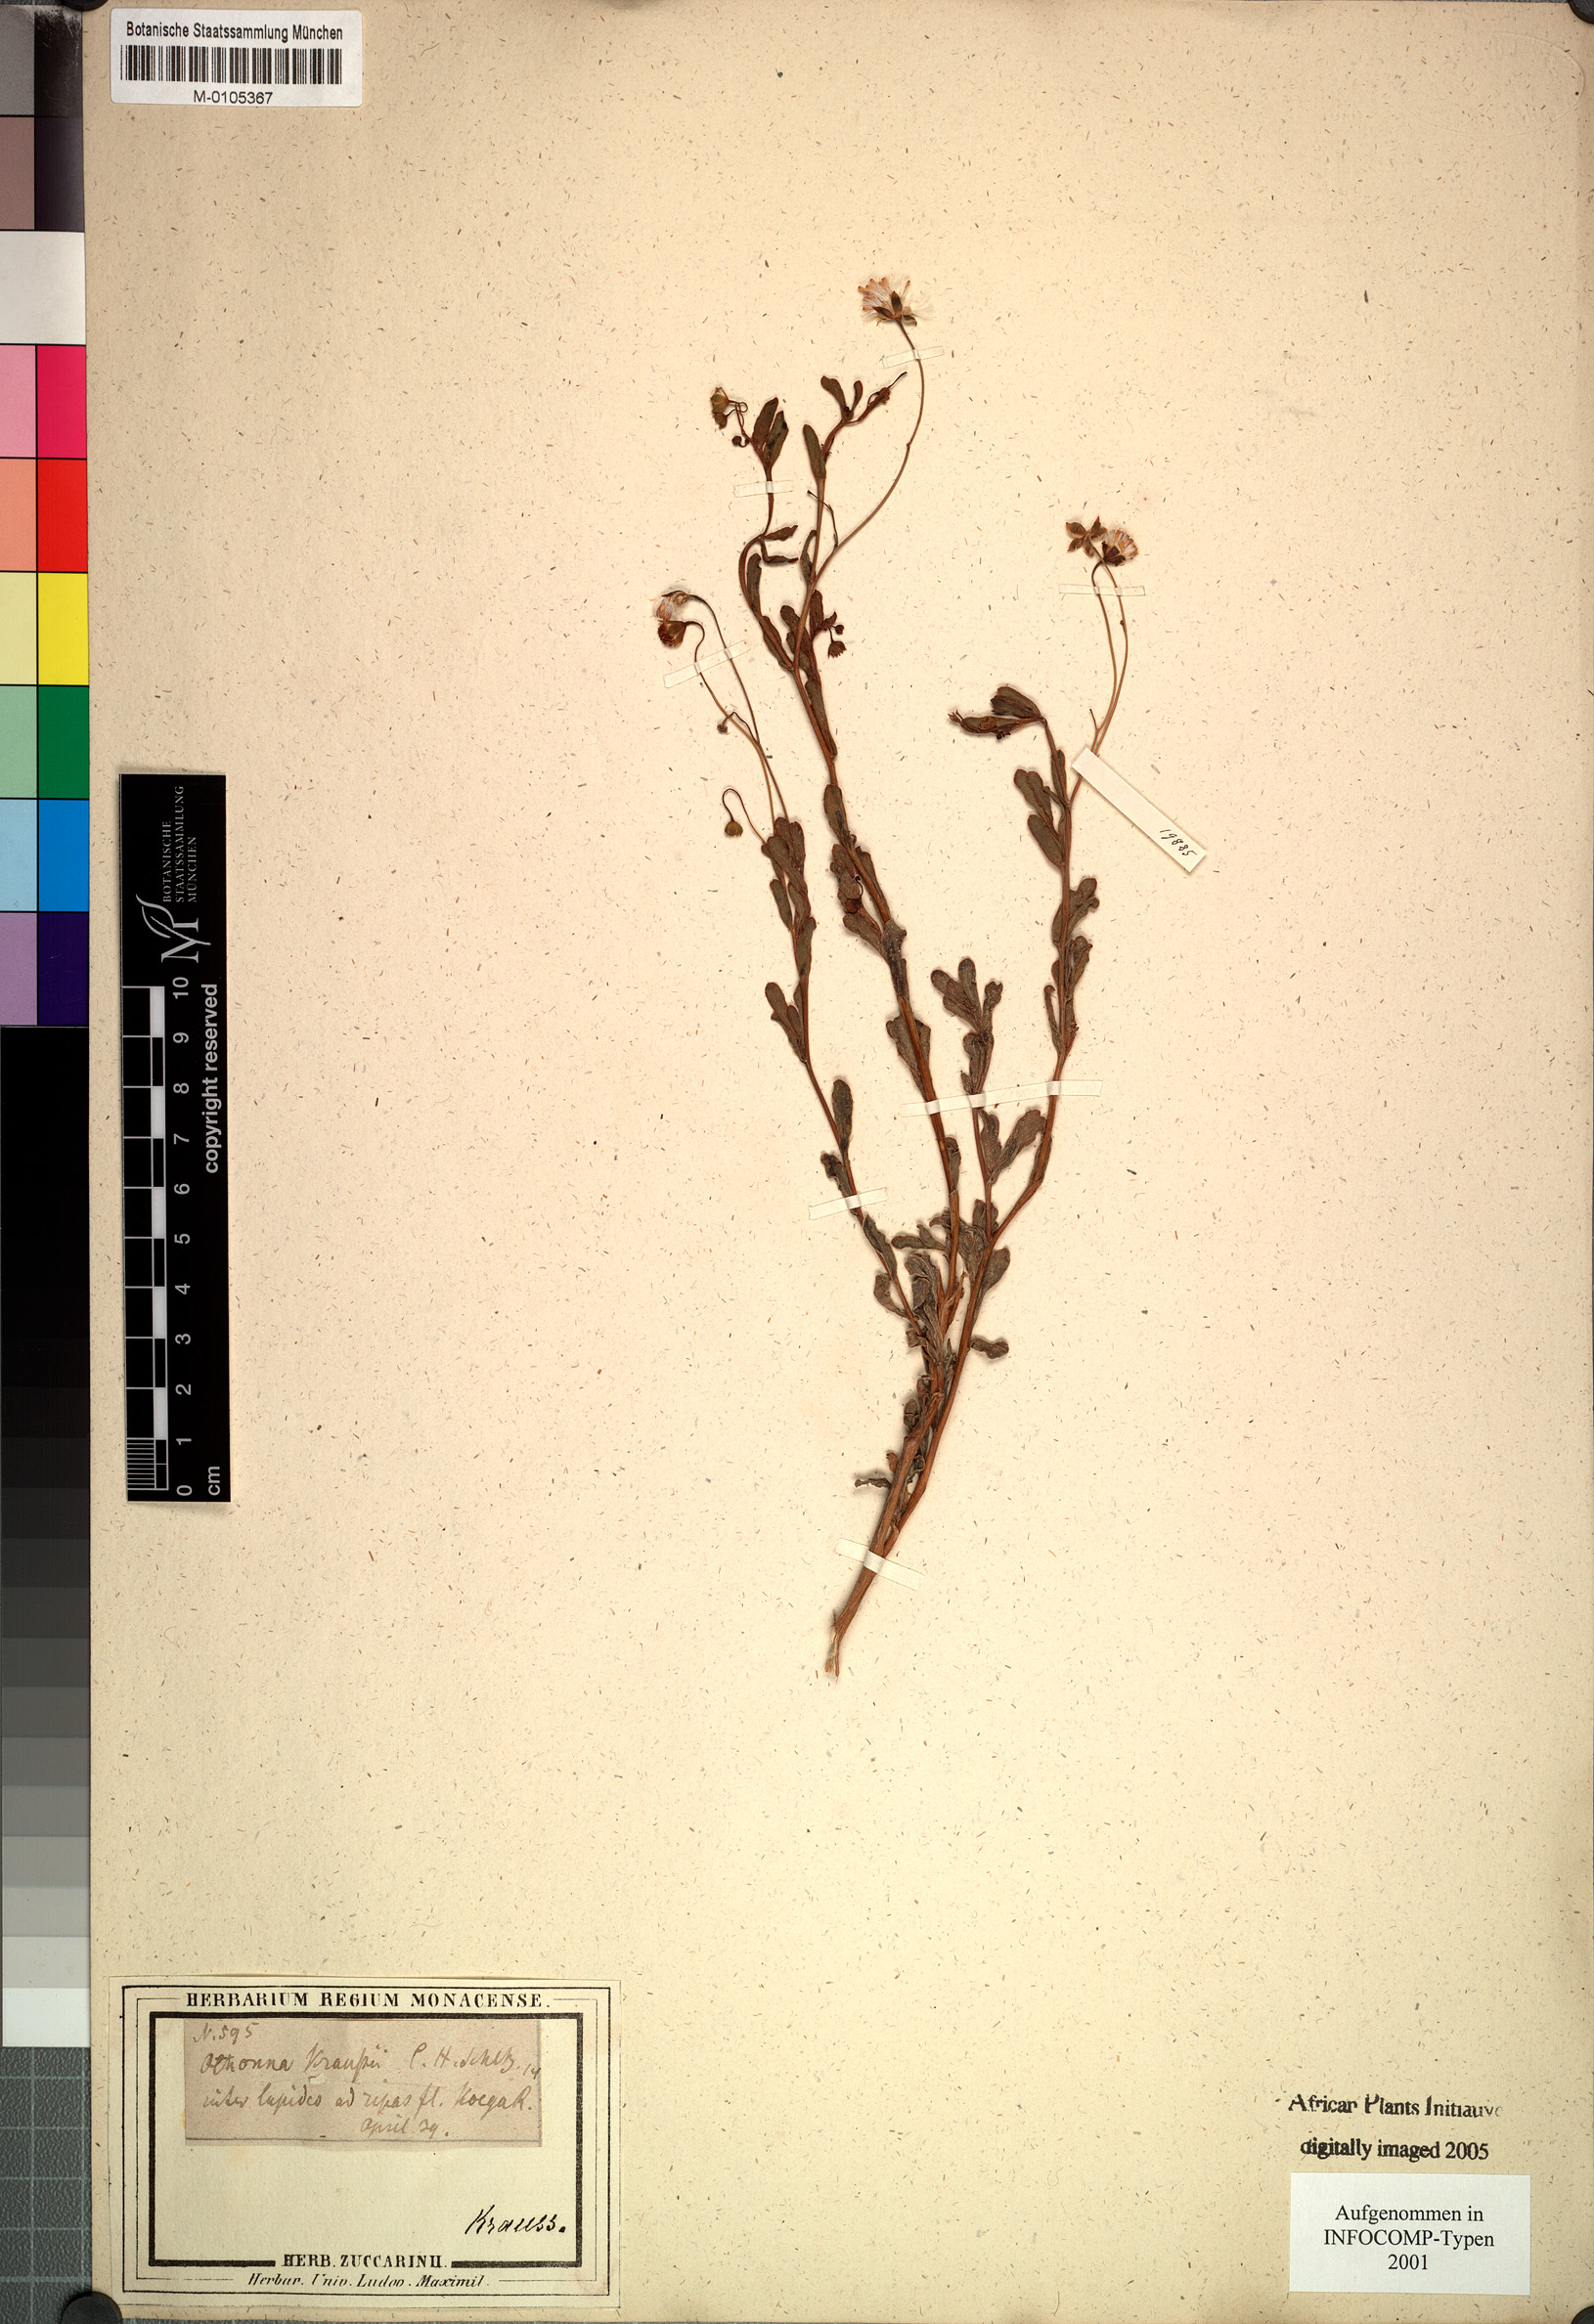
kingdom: Plantae
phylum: Tracheophyta
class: Magnoliopsida
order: Asterales
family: Asteraceae
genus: Hertia
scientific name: Hertia kraussii
